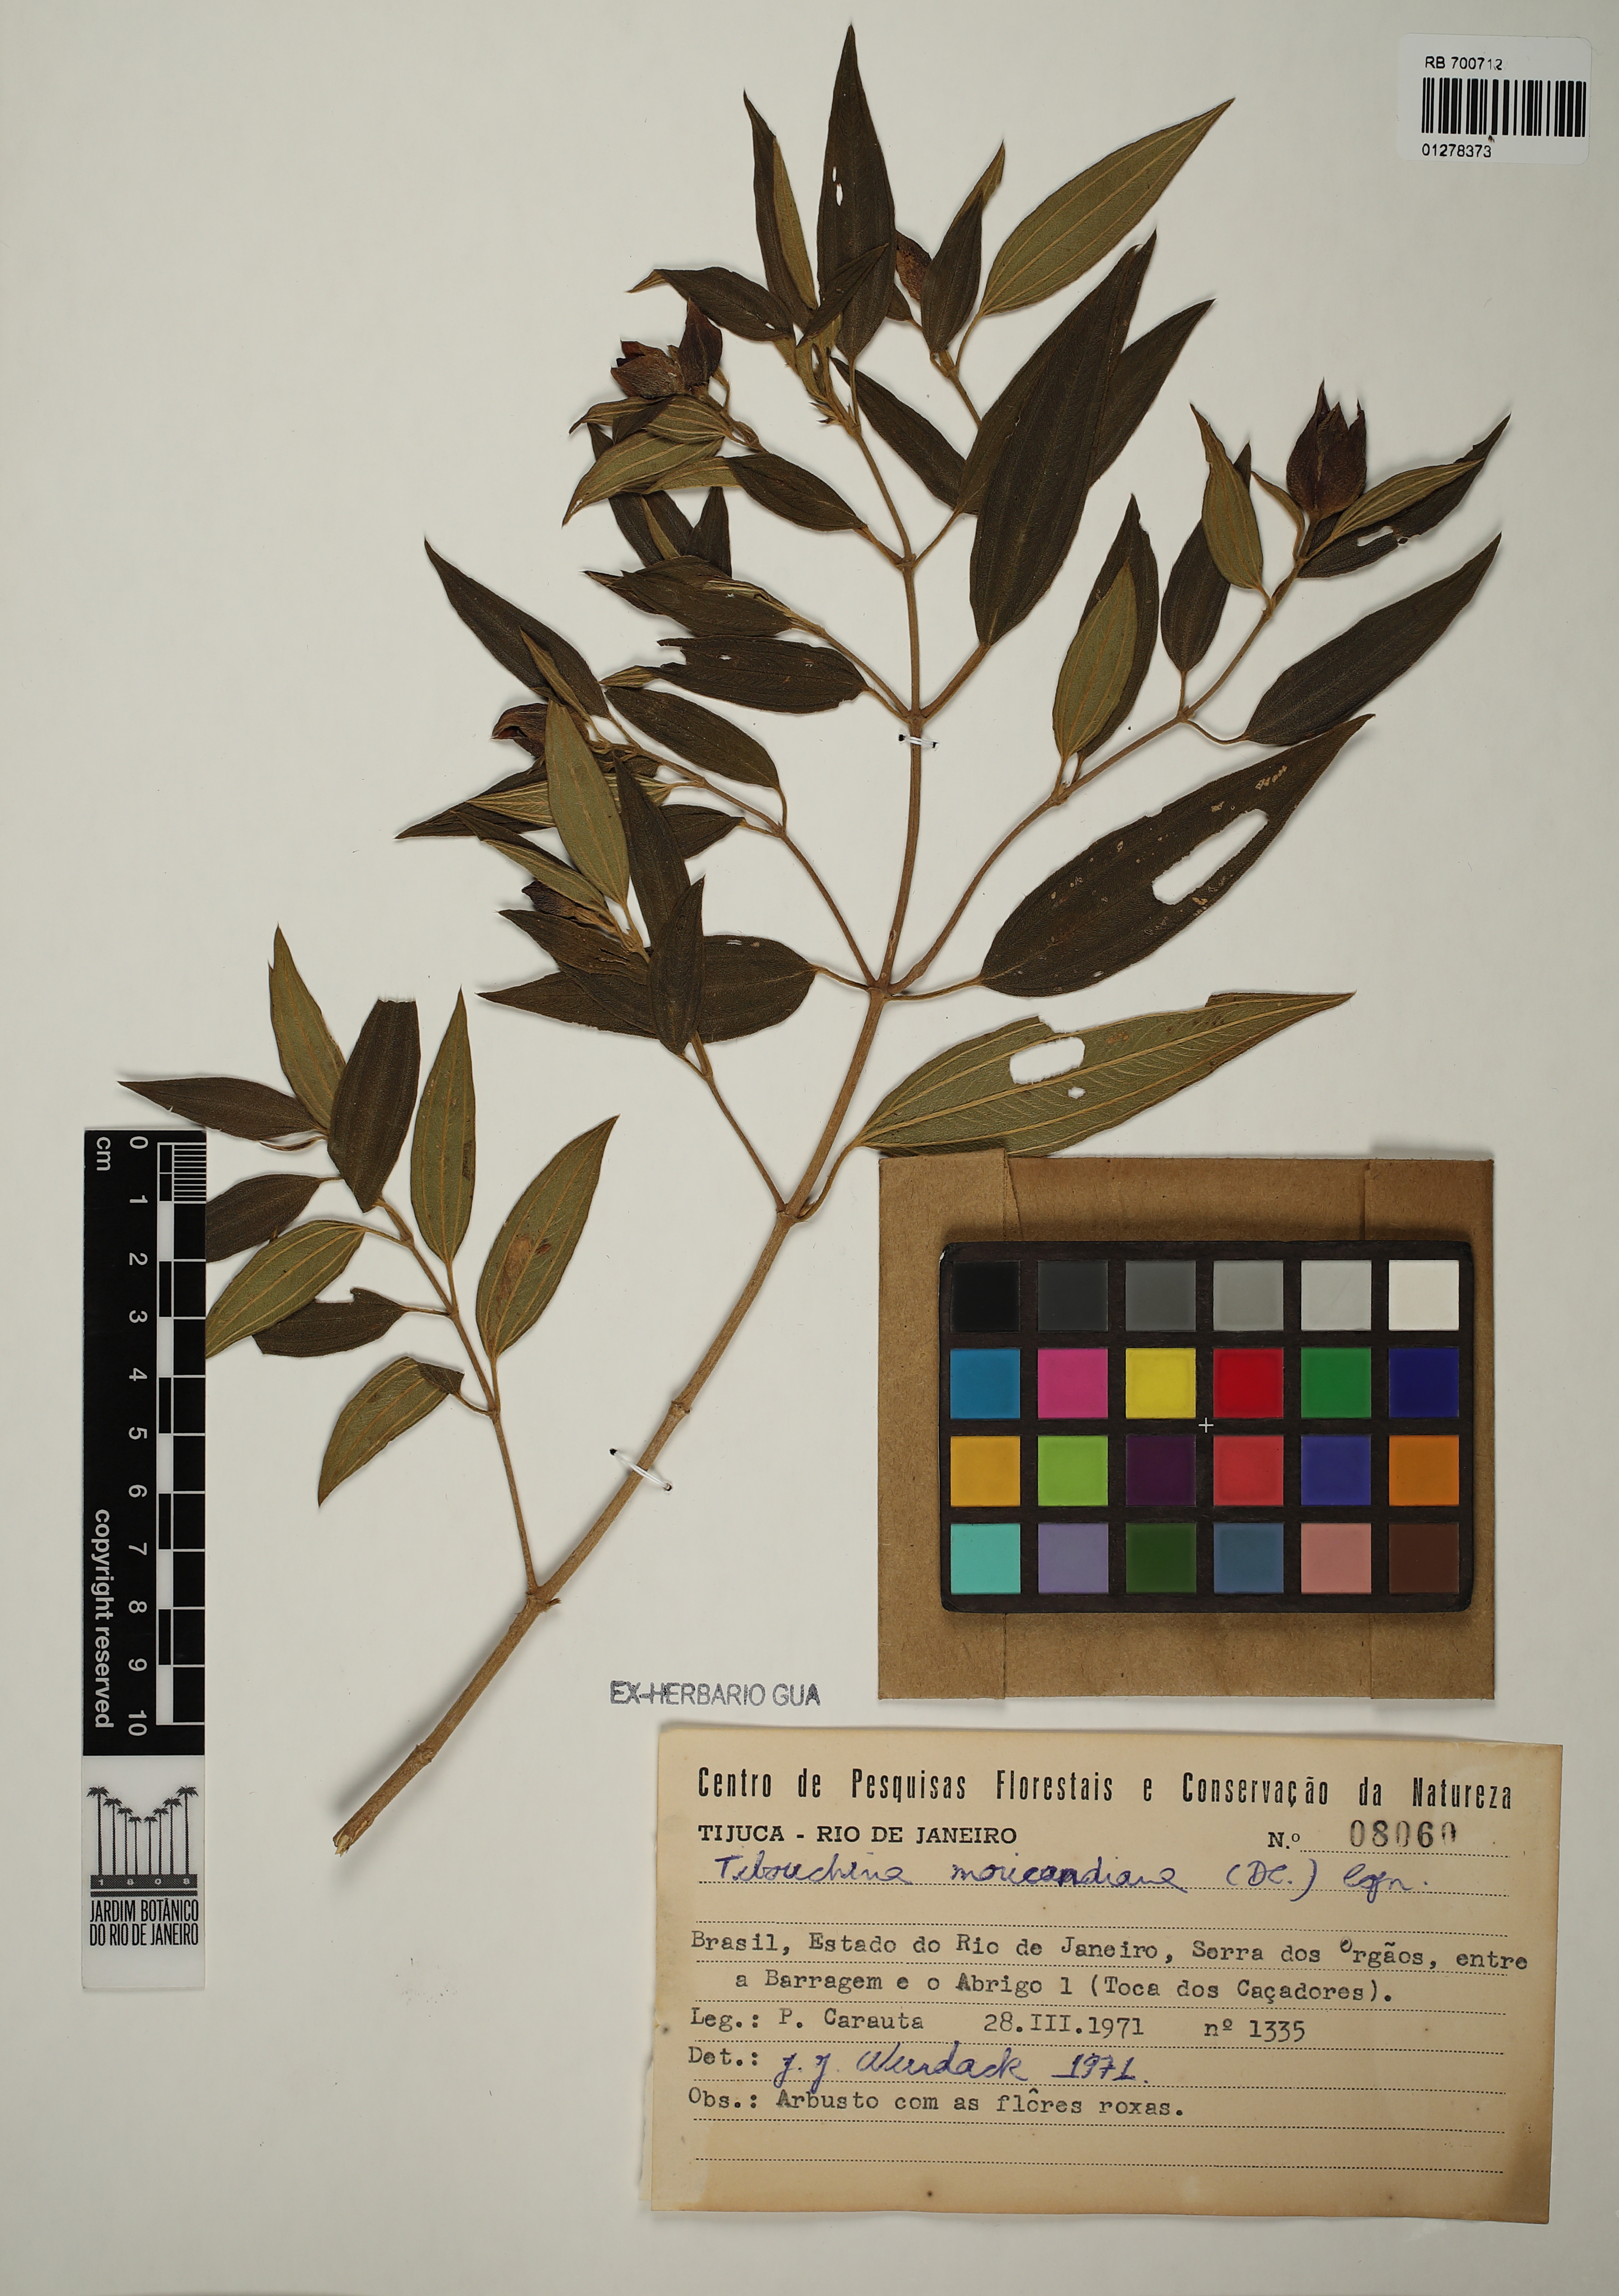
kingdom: Plantae
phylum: Tracheophyta
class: Magnoliopsida
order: Myrtales
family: Melastomataceae
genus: Pleroma
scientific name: Pleroma gaudichaudianum
